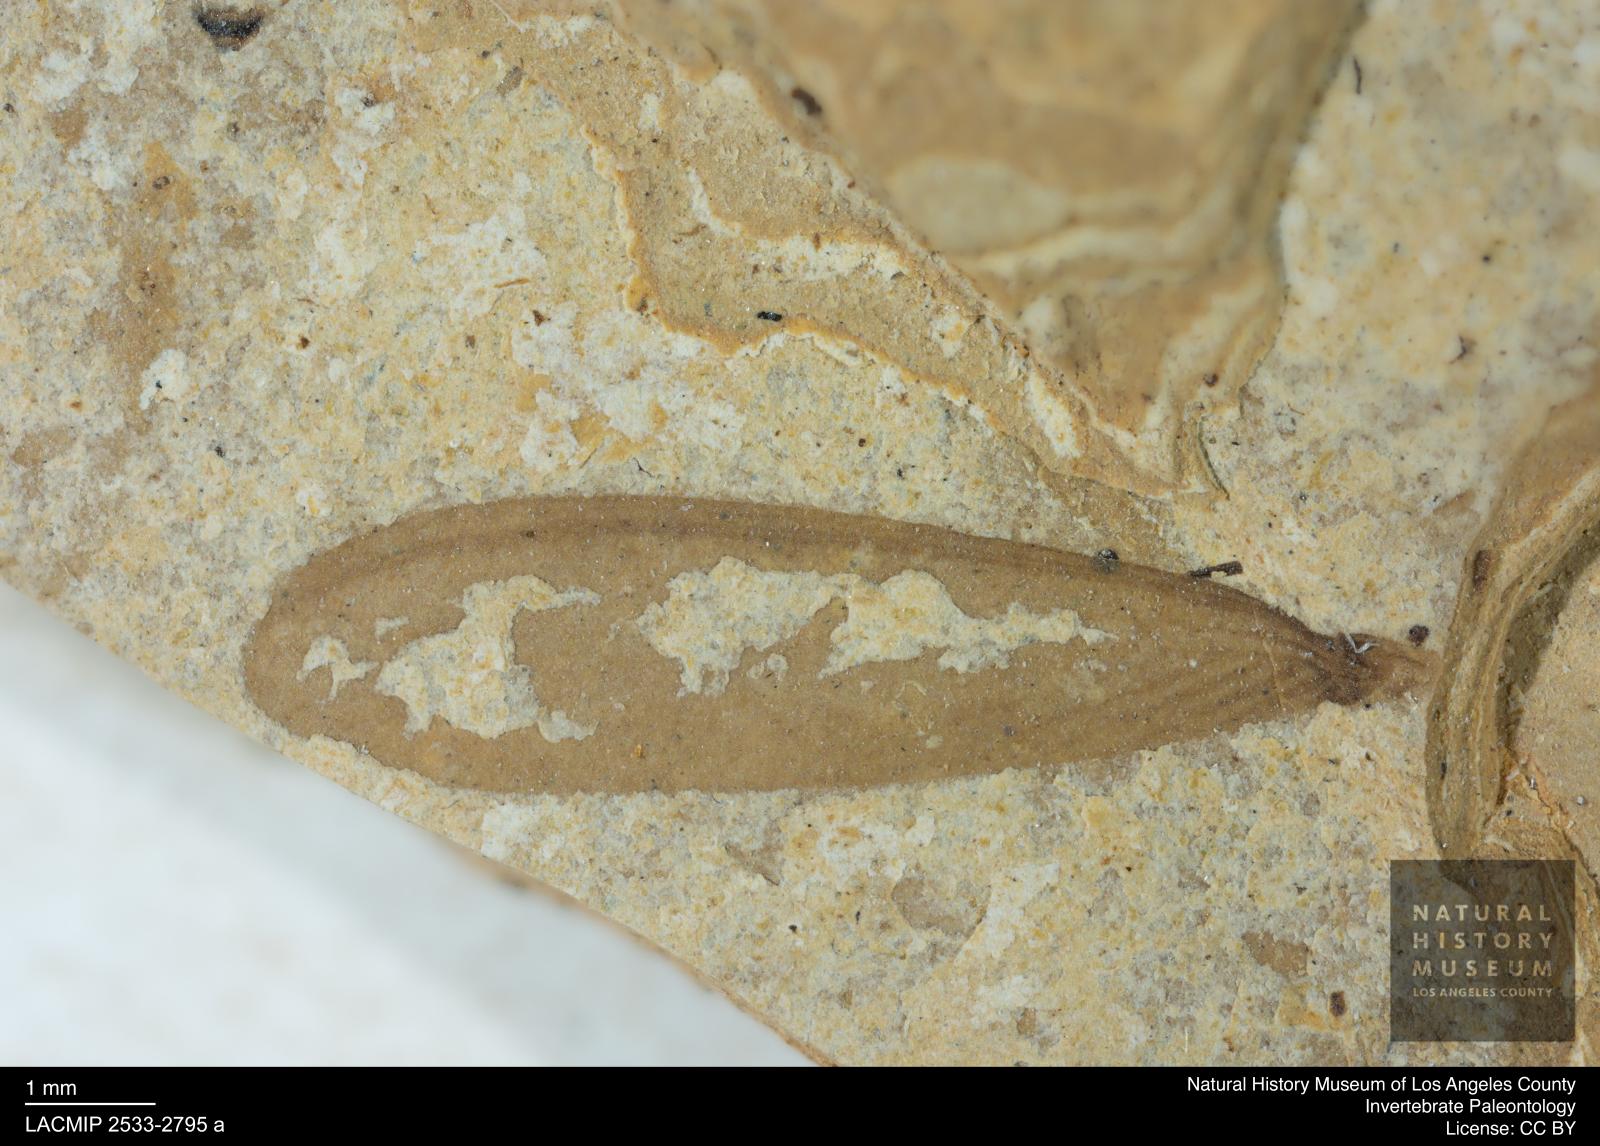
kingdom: Animalia
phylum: Arthropoda
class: Insecta
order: Blattodea
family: Kalotermitidae
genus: Kalotermes
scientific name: Kalotermes rhenanus
